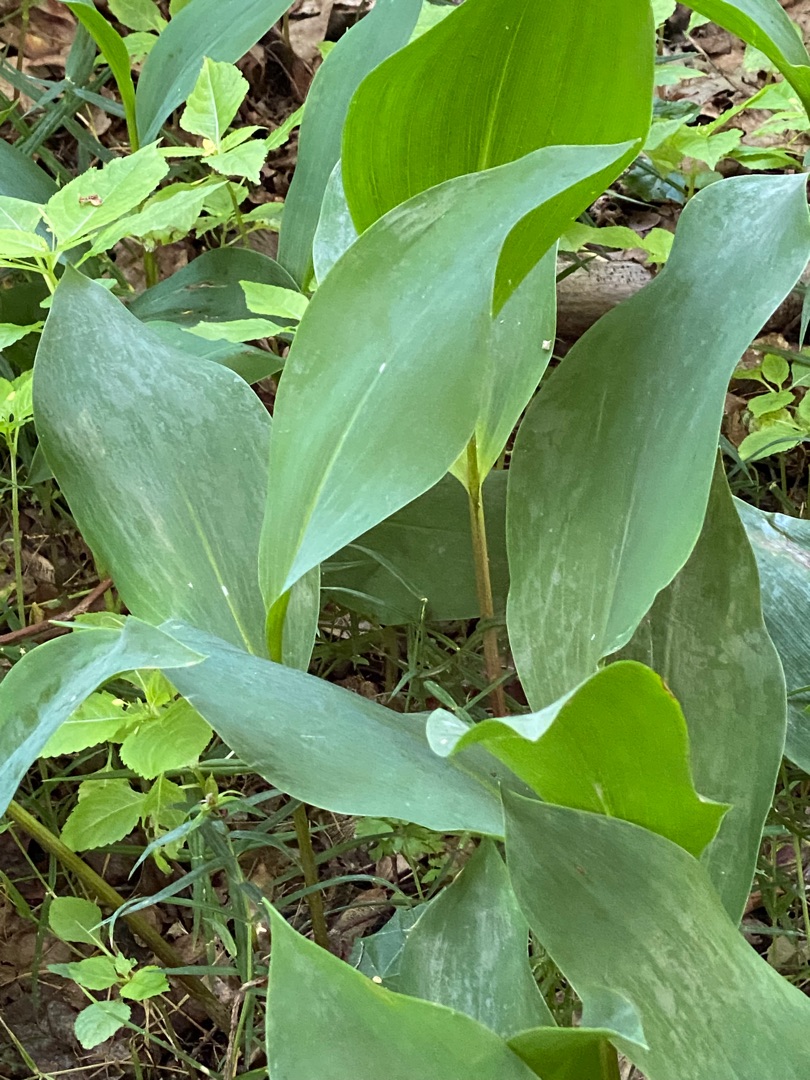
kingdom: Plantae
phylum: Tracheophyta
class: Liliopsida
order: Asparagales
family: Asparagaceae
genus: Convallaria
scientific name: Convallaria majalis
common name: Liljekonval
